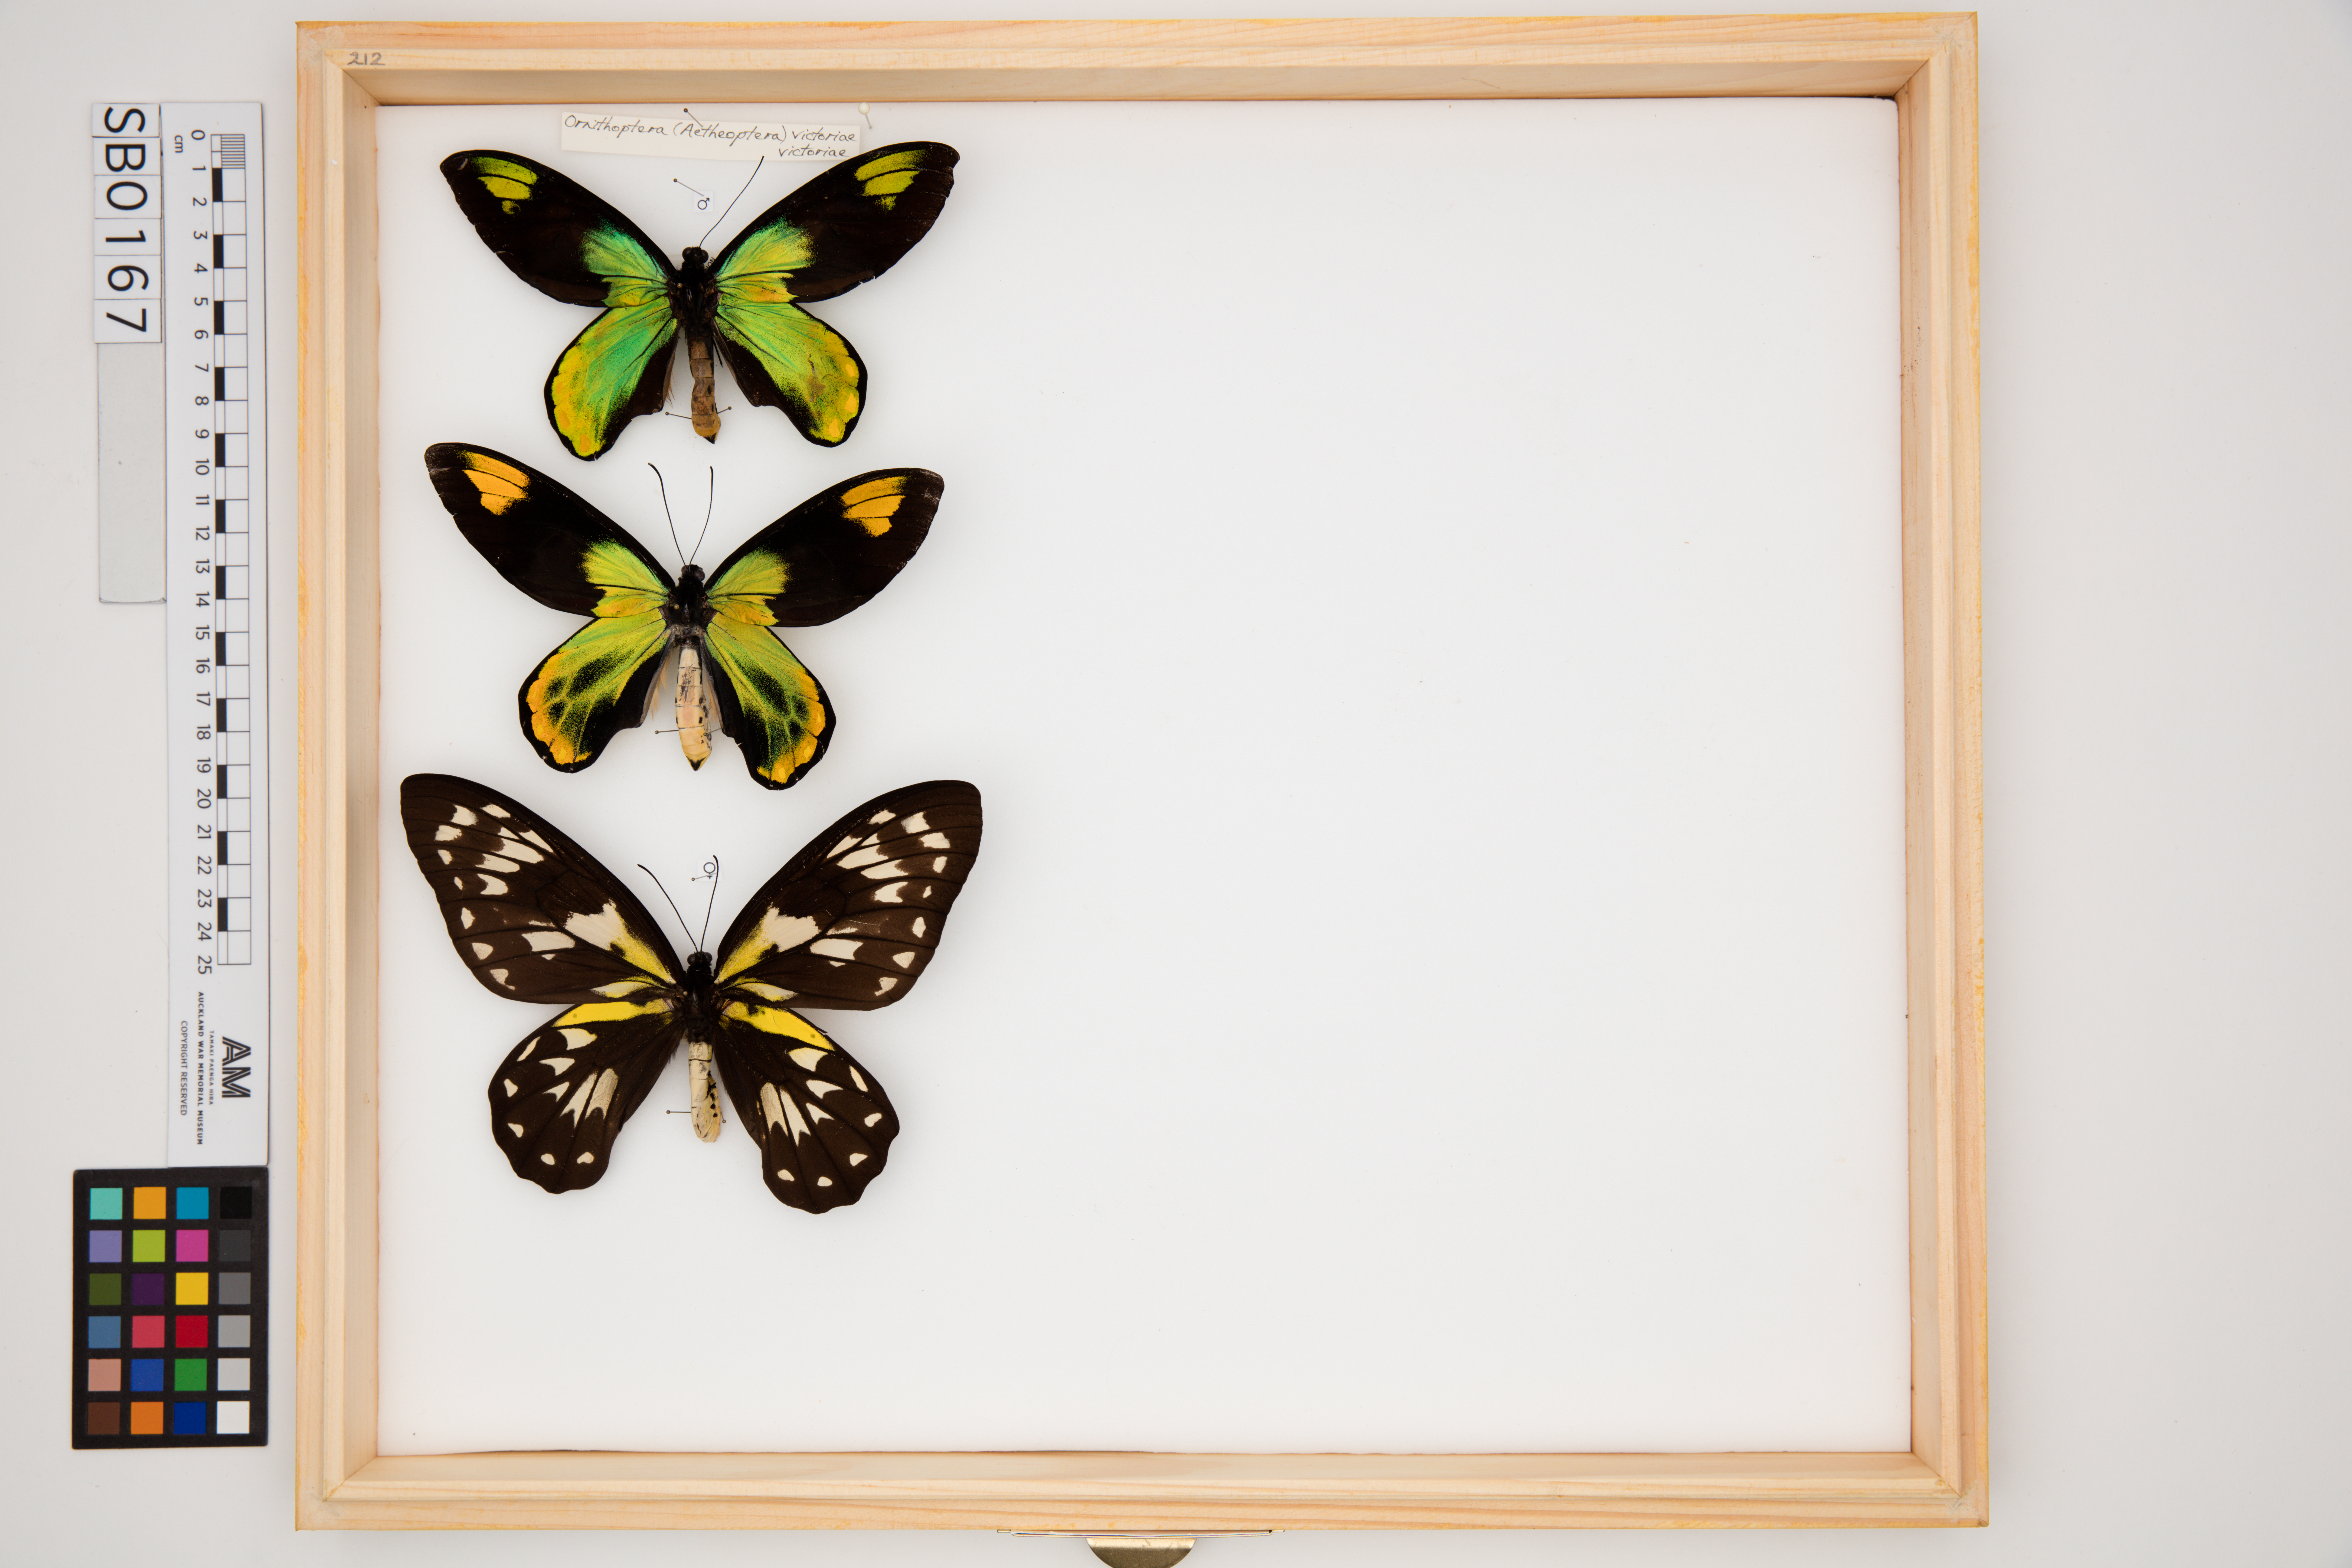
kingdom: Animalia
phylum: Arthropoda
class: Insecta
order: Lepidoptera
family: Papilionidae
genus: Ornithoptera
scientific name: Ornithoptera victoriae
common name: Queen victoria's birdwing
